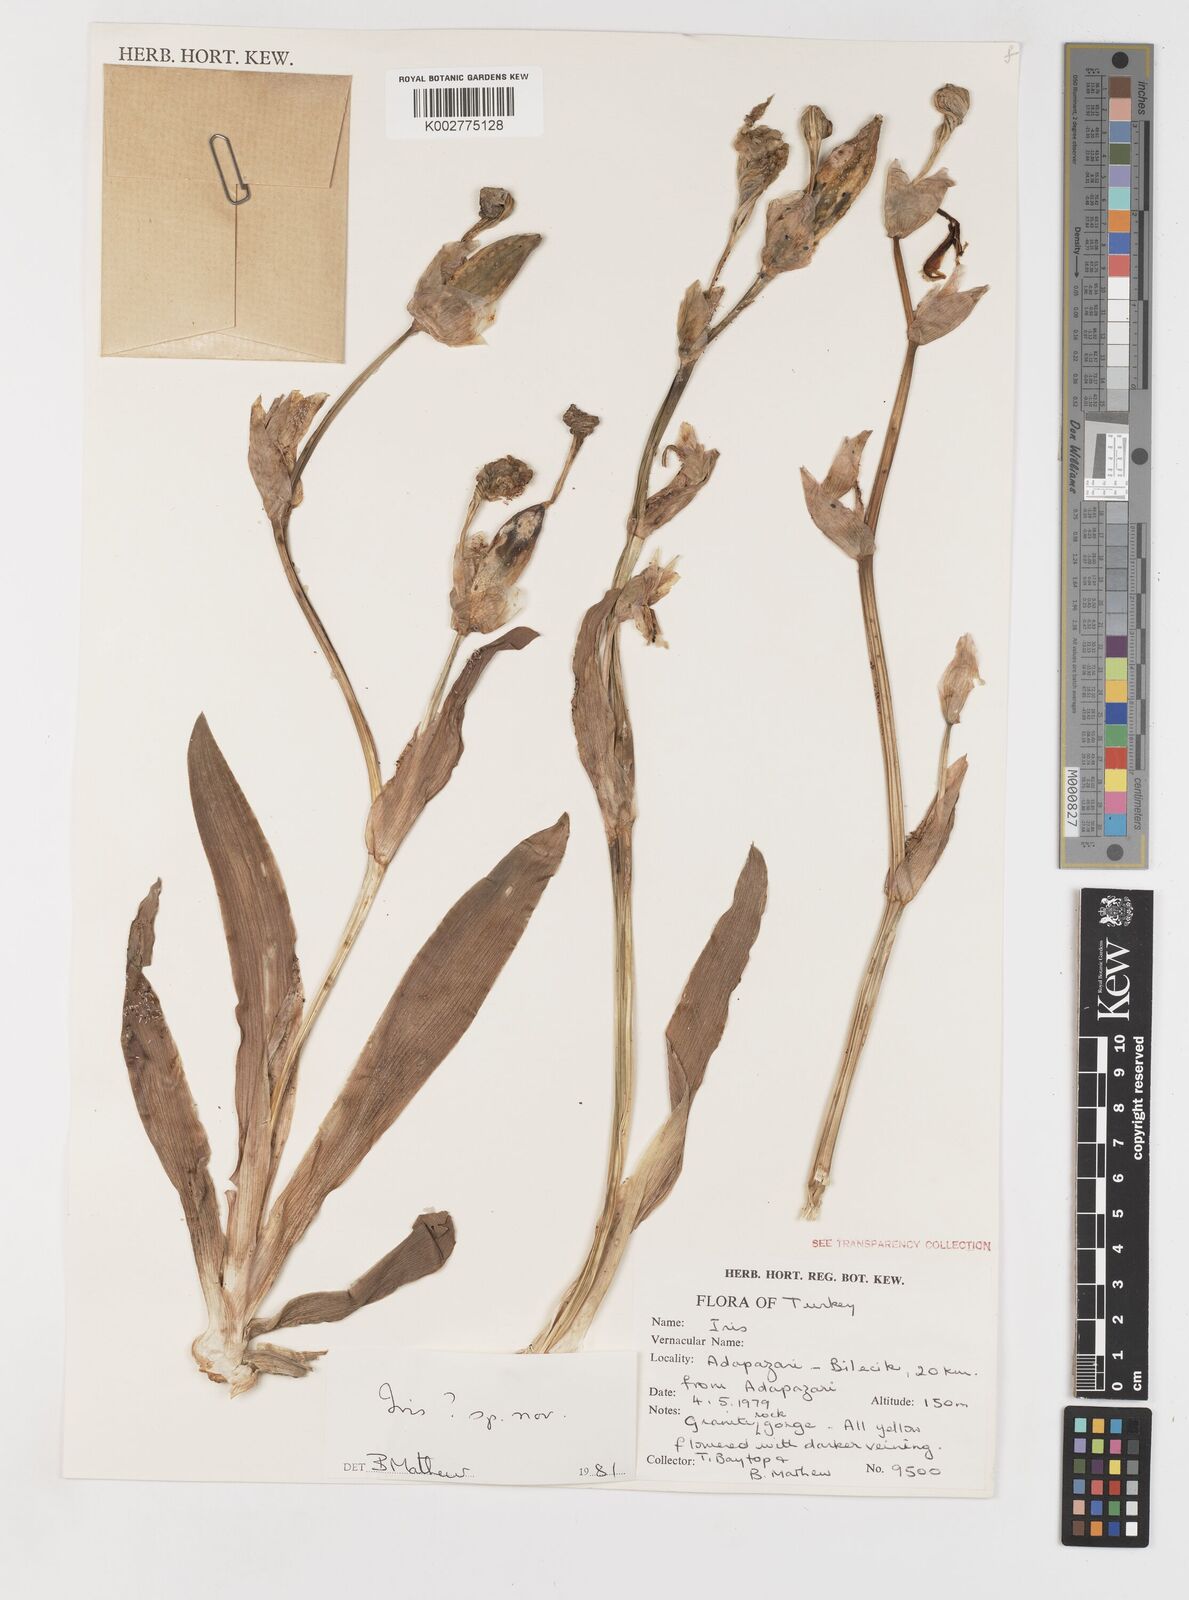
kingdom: Plantae
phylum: Tracheophyta
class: Liliopsida
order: Asparagales
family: Iridaceae
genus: Iris
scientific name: Iris purpureobractea
